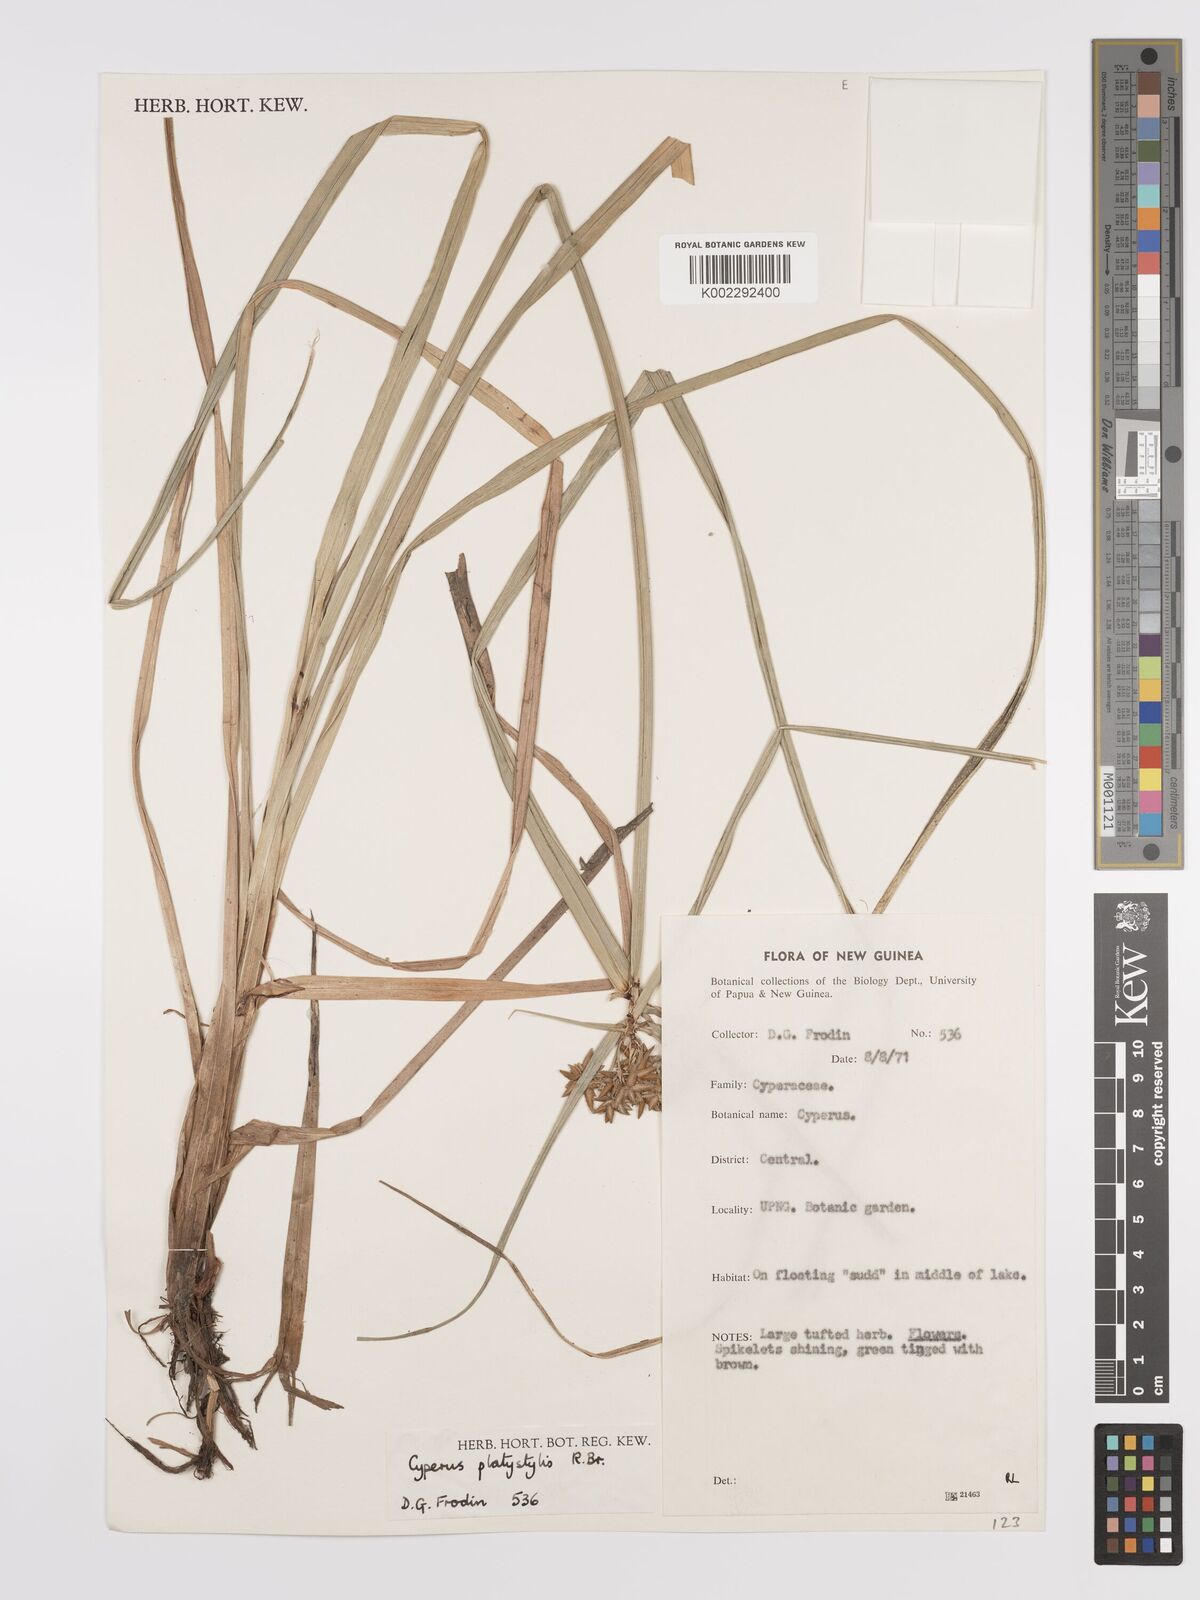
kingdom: Plantae
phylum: Tracheophyta
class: Liliopsida
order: Poales
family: Cyperaceae
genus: Cyperus
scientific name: Cyperus platystylis
